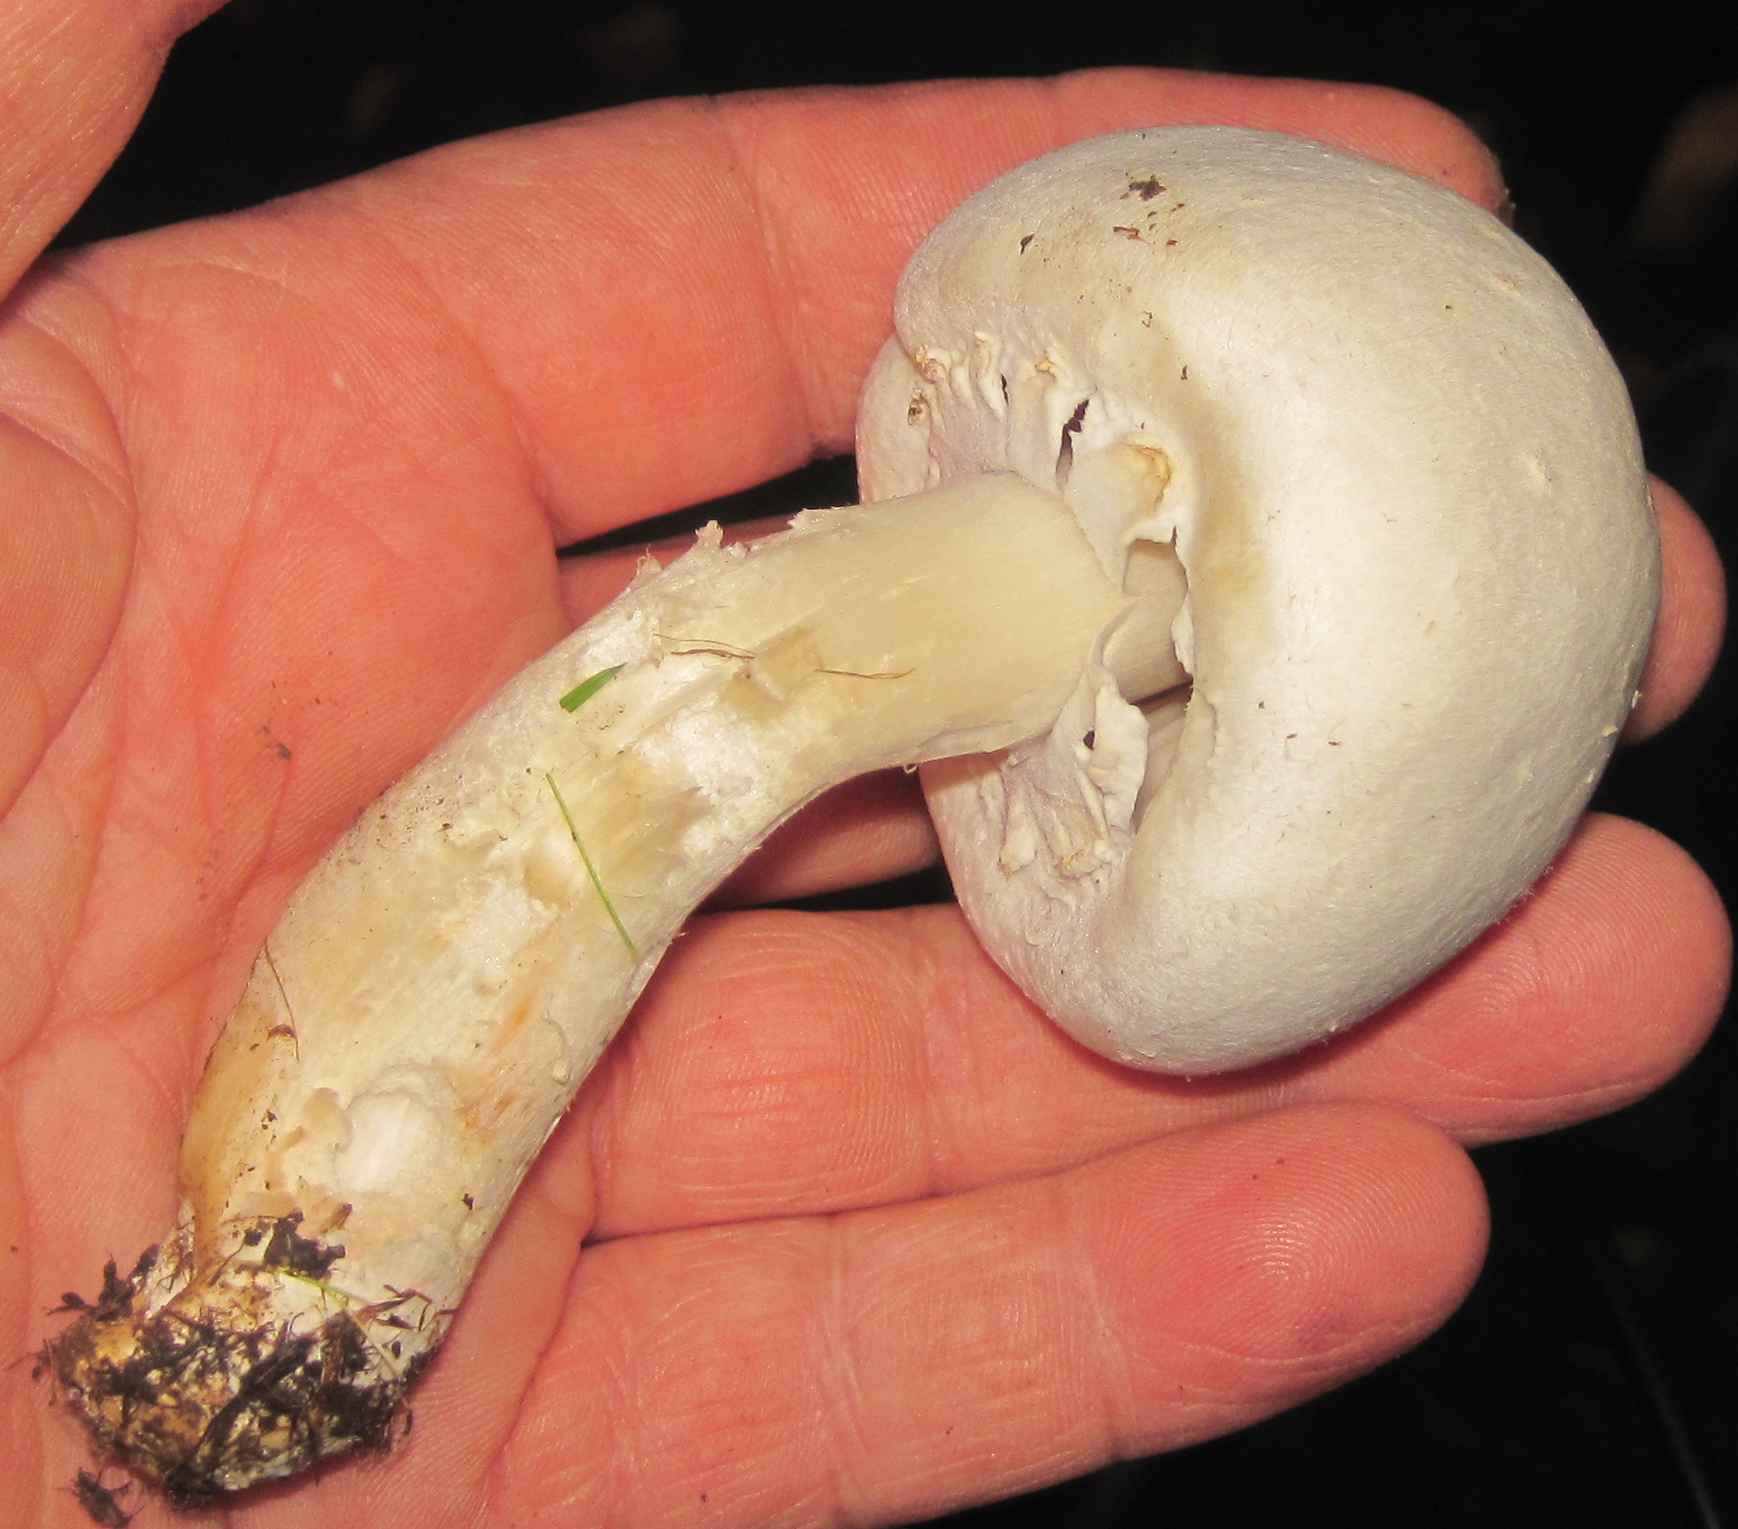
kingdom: Fungi
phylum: Basidiomycota
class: Agaricomycetes
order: Agaricales
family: Agaricaceae
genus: Agaricus
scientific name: Agaricus arvensis
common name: ager-champignon
